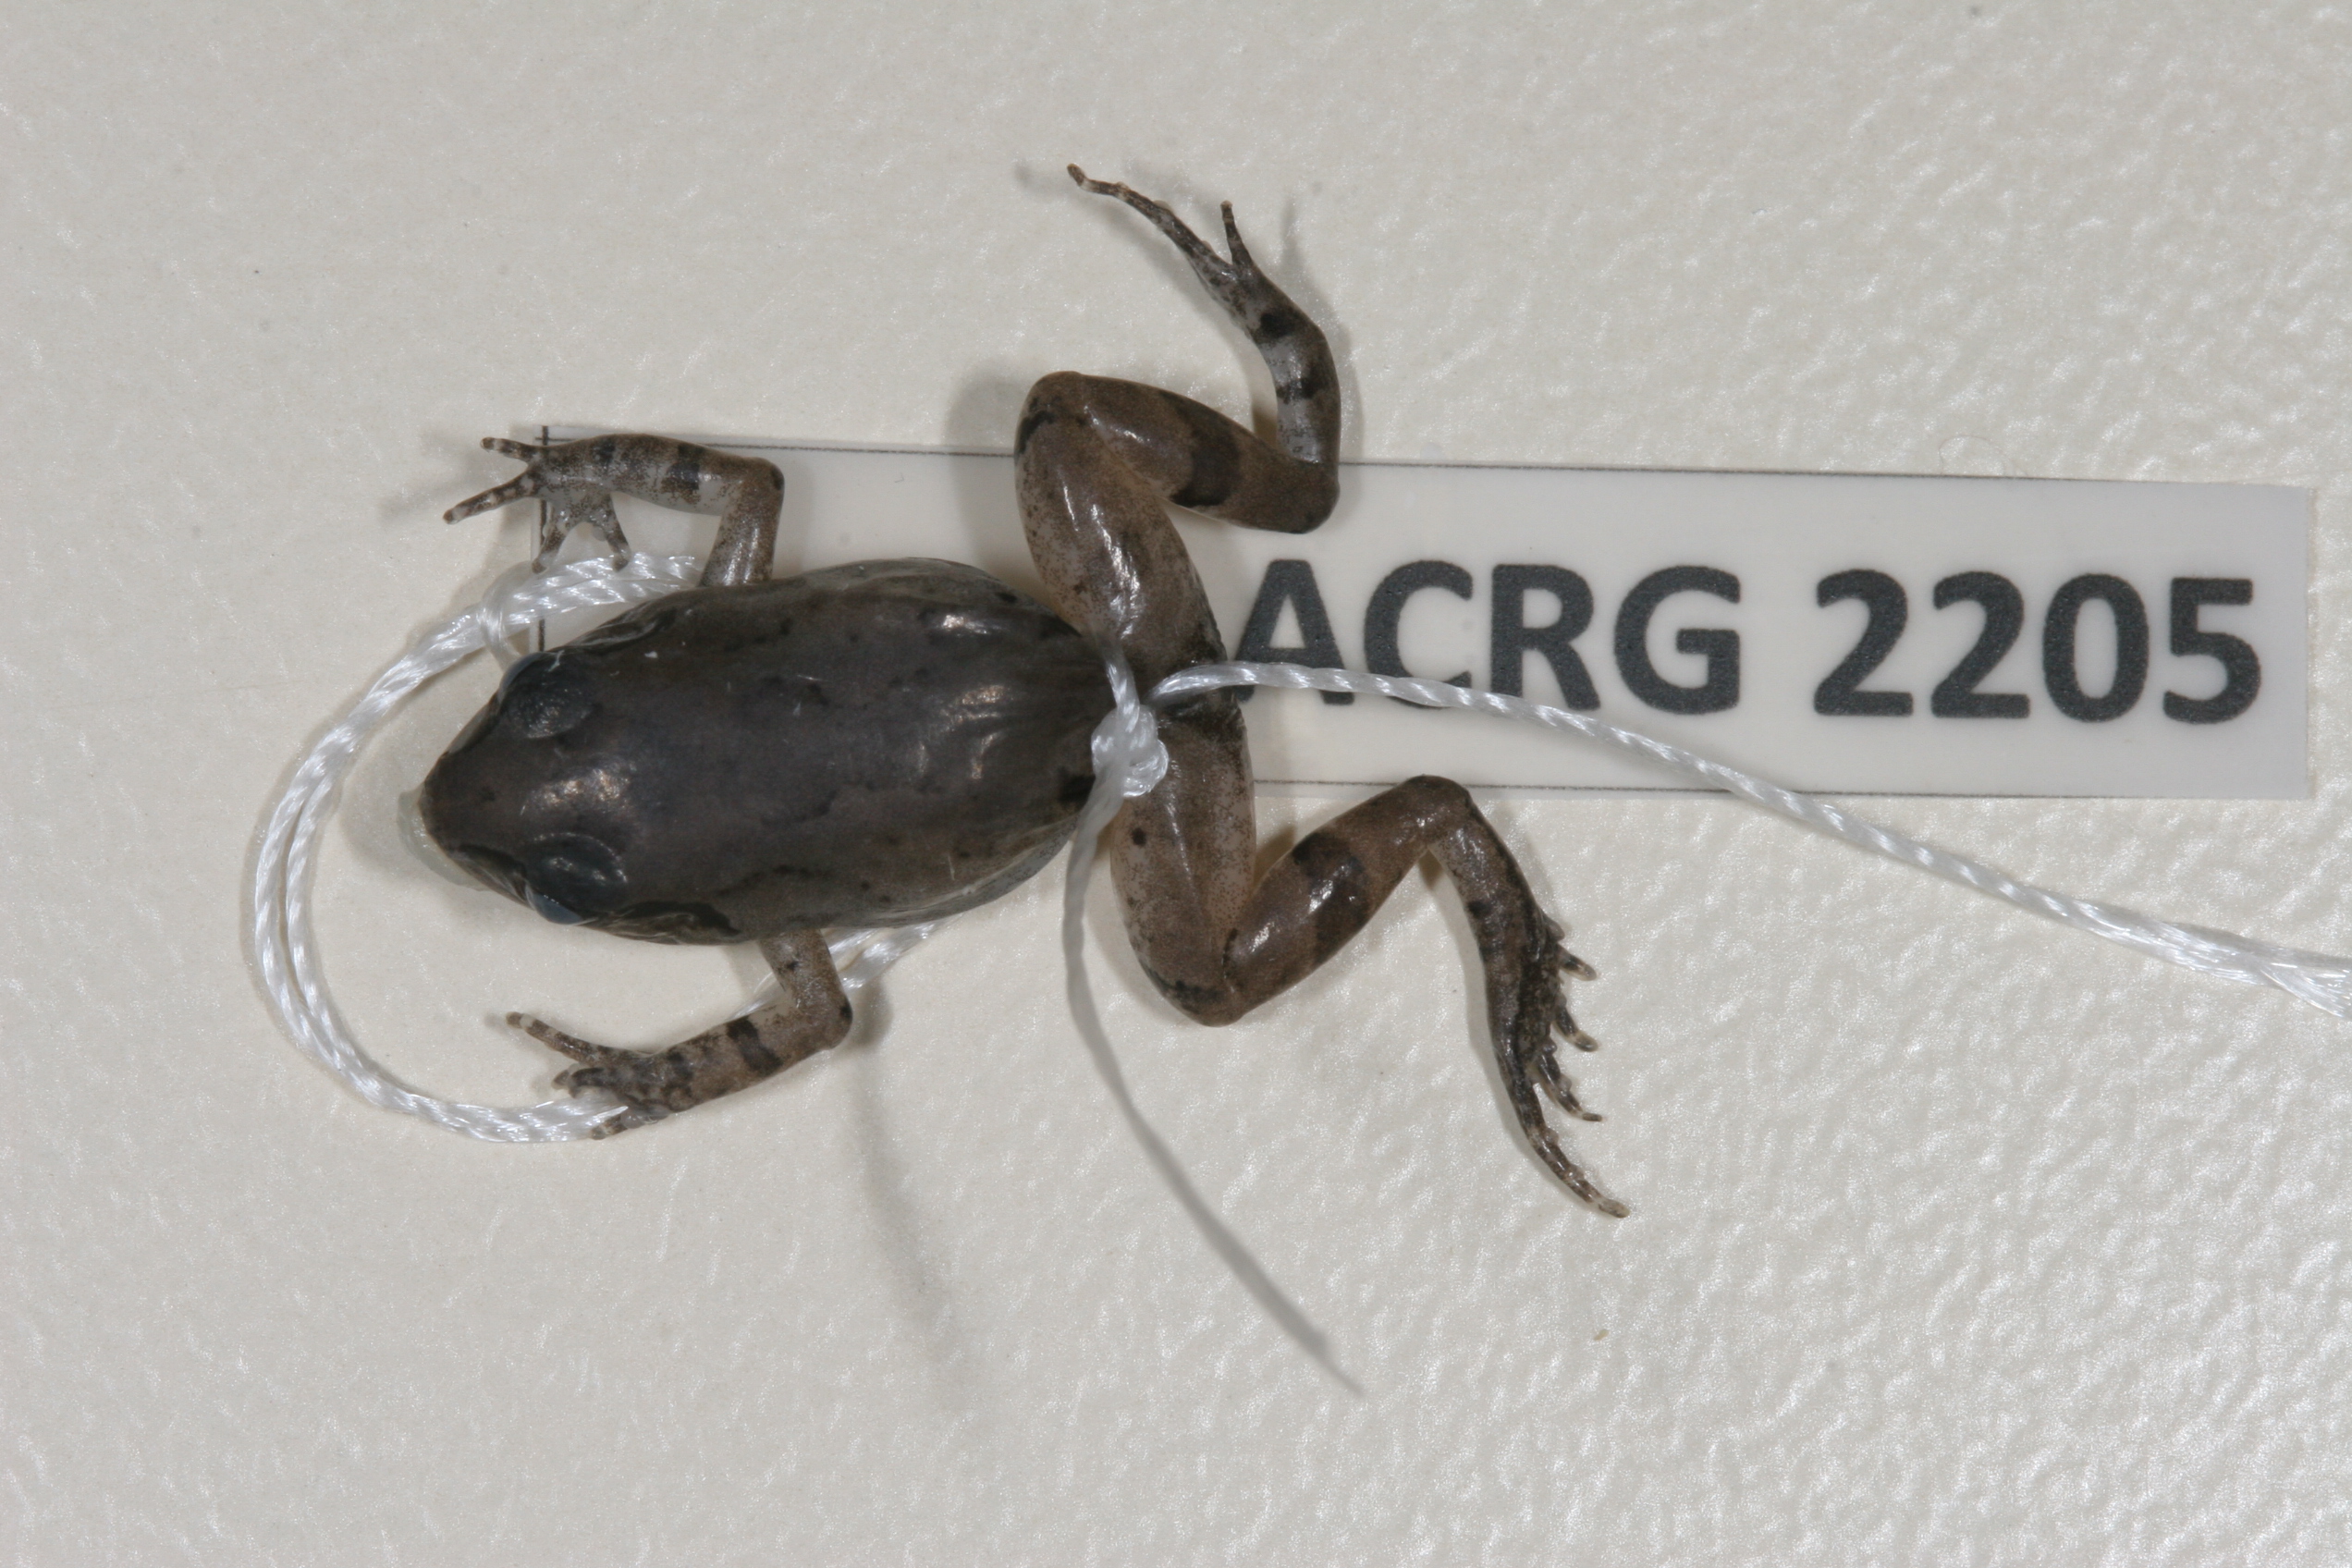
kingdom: Animalia
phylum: Chordata
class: Amphibia
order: Anura
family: Arthroleptidae
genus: Arthroleptis
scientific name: Arthroleptis wahlbergii
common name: Bush squeaker
